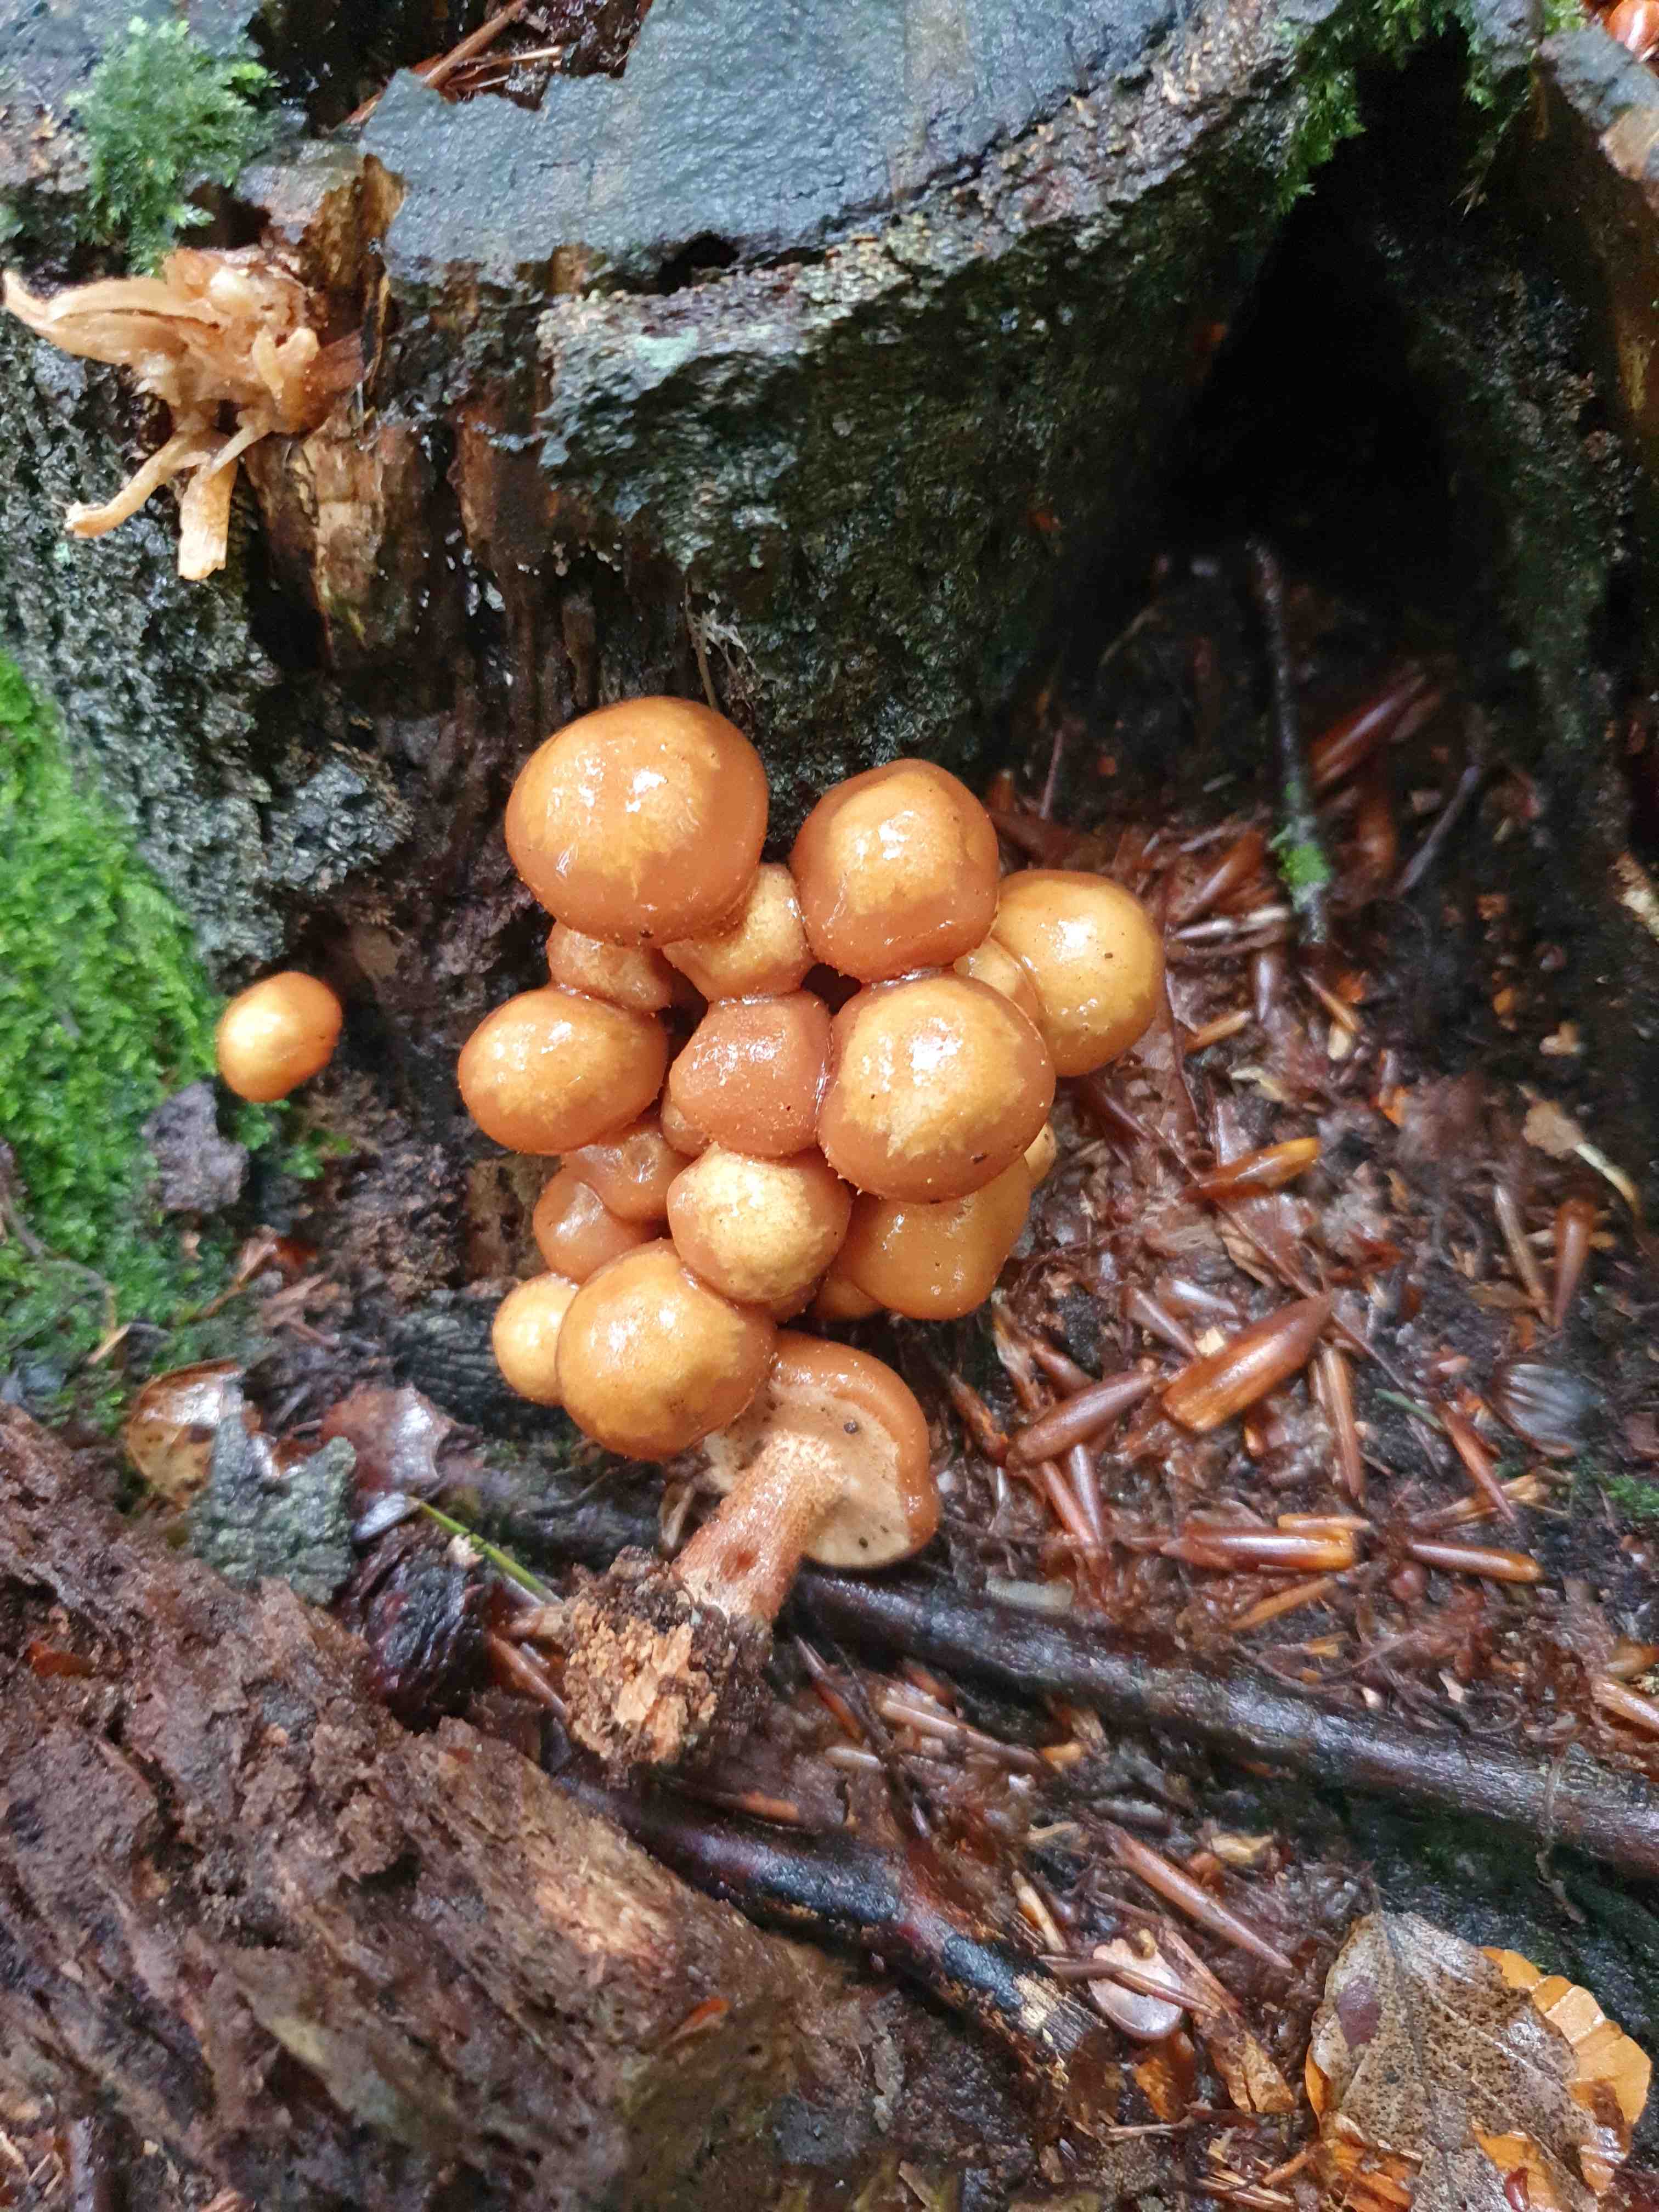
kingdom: Fungi
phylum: Basidiomycota
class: Agaricomycetes
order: Agaricales
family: Strophariaceae
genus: Kuehneromyces
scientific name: Kuehneromyces mutabilis
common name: foranderlig skælhat
